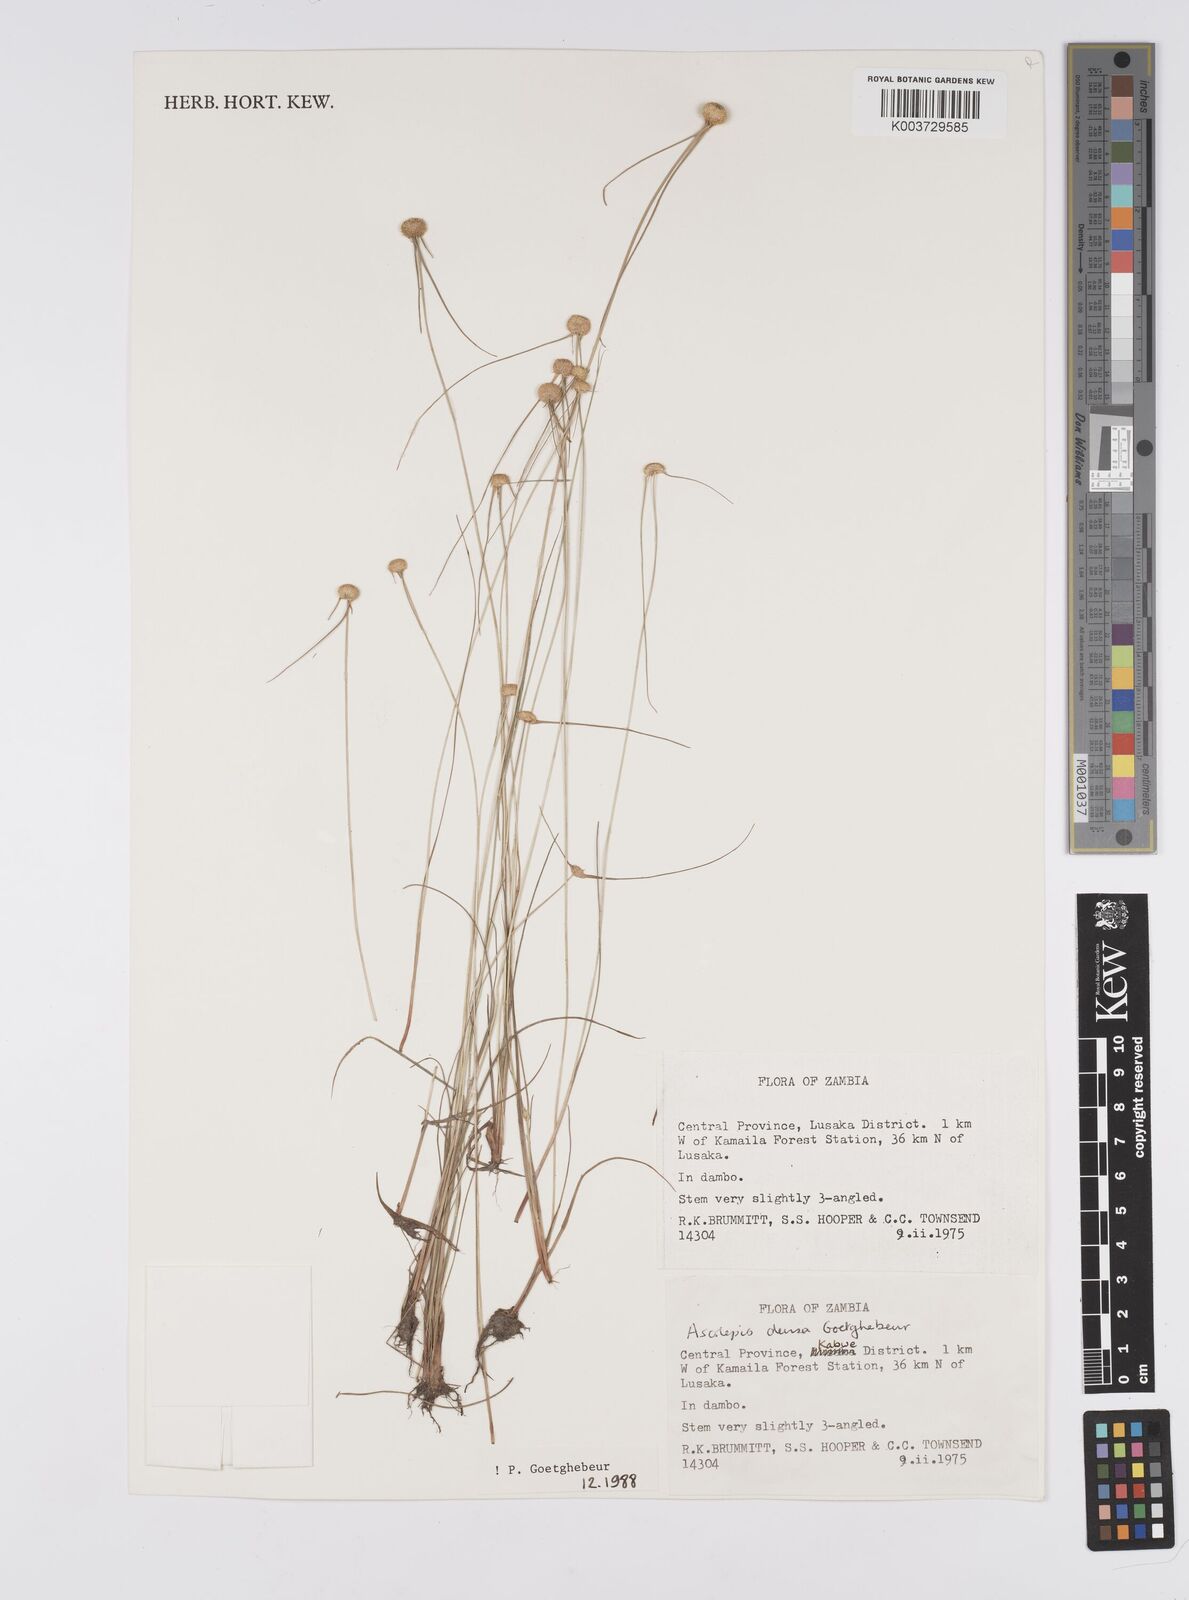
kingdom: Plantae
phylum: Tracheophyta
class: Liliopsida
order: Poales
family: Cyperaceae
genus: Cyperus
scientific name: Cyperus
